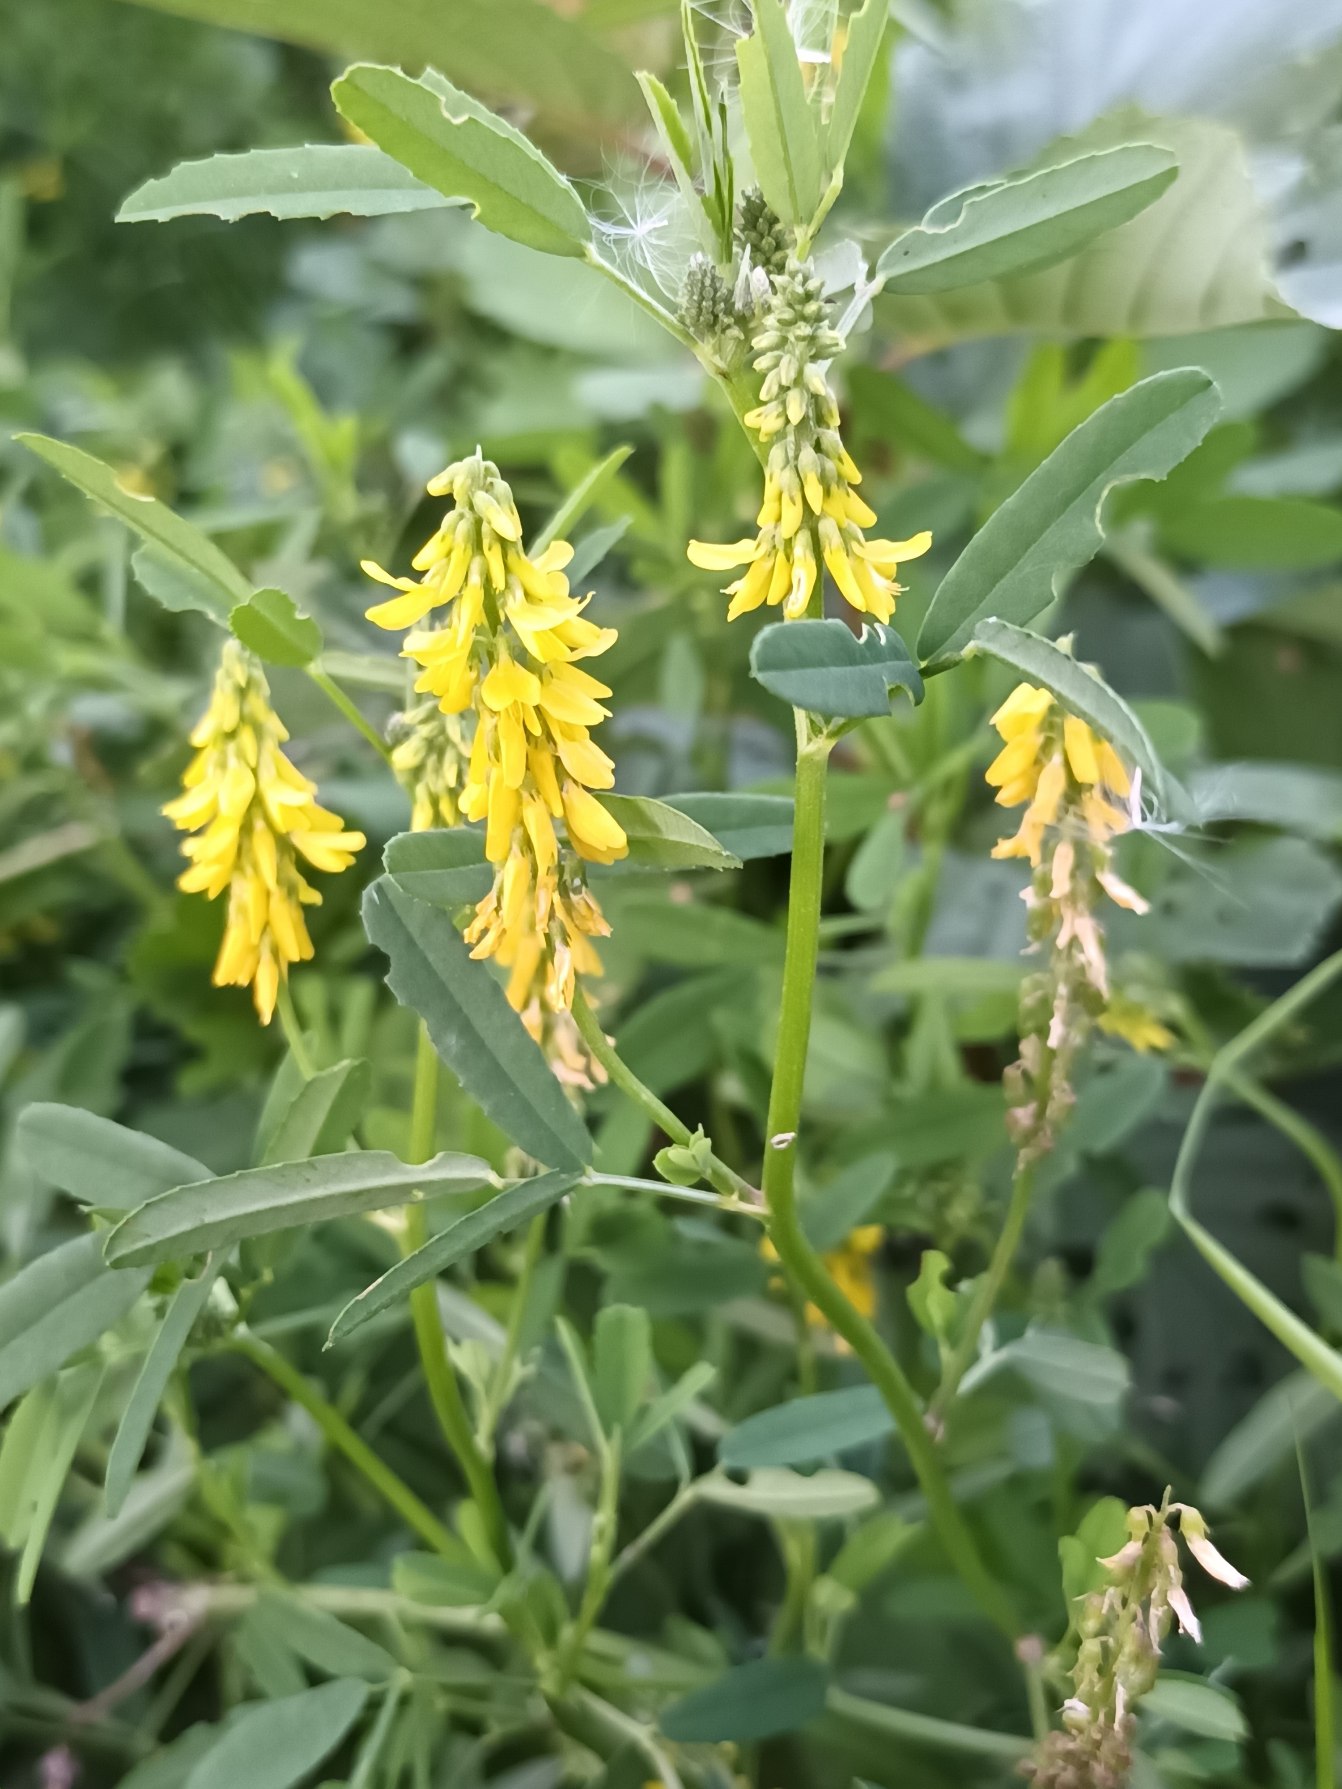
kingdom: Plantae
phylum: Tracheophyta
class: Magnoliopsida
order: Fabales
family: Fabaceae
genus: Melilotus
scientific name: Melilotus altissimus
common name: Høj stenkløver
